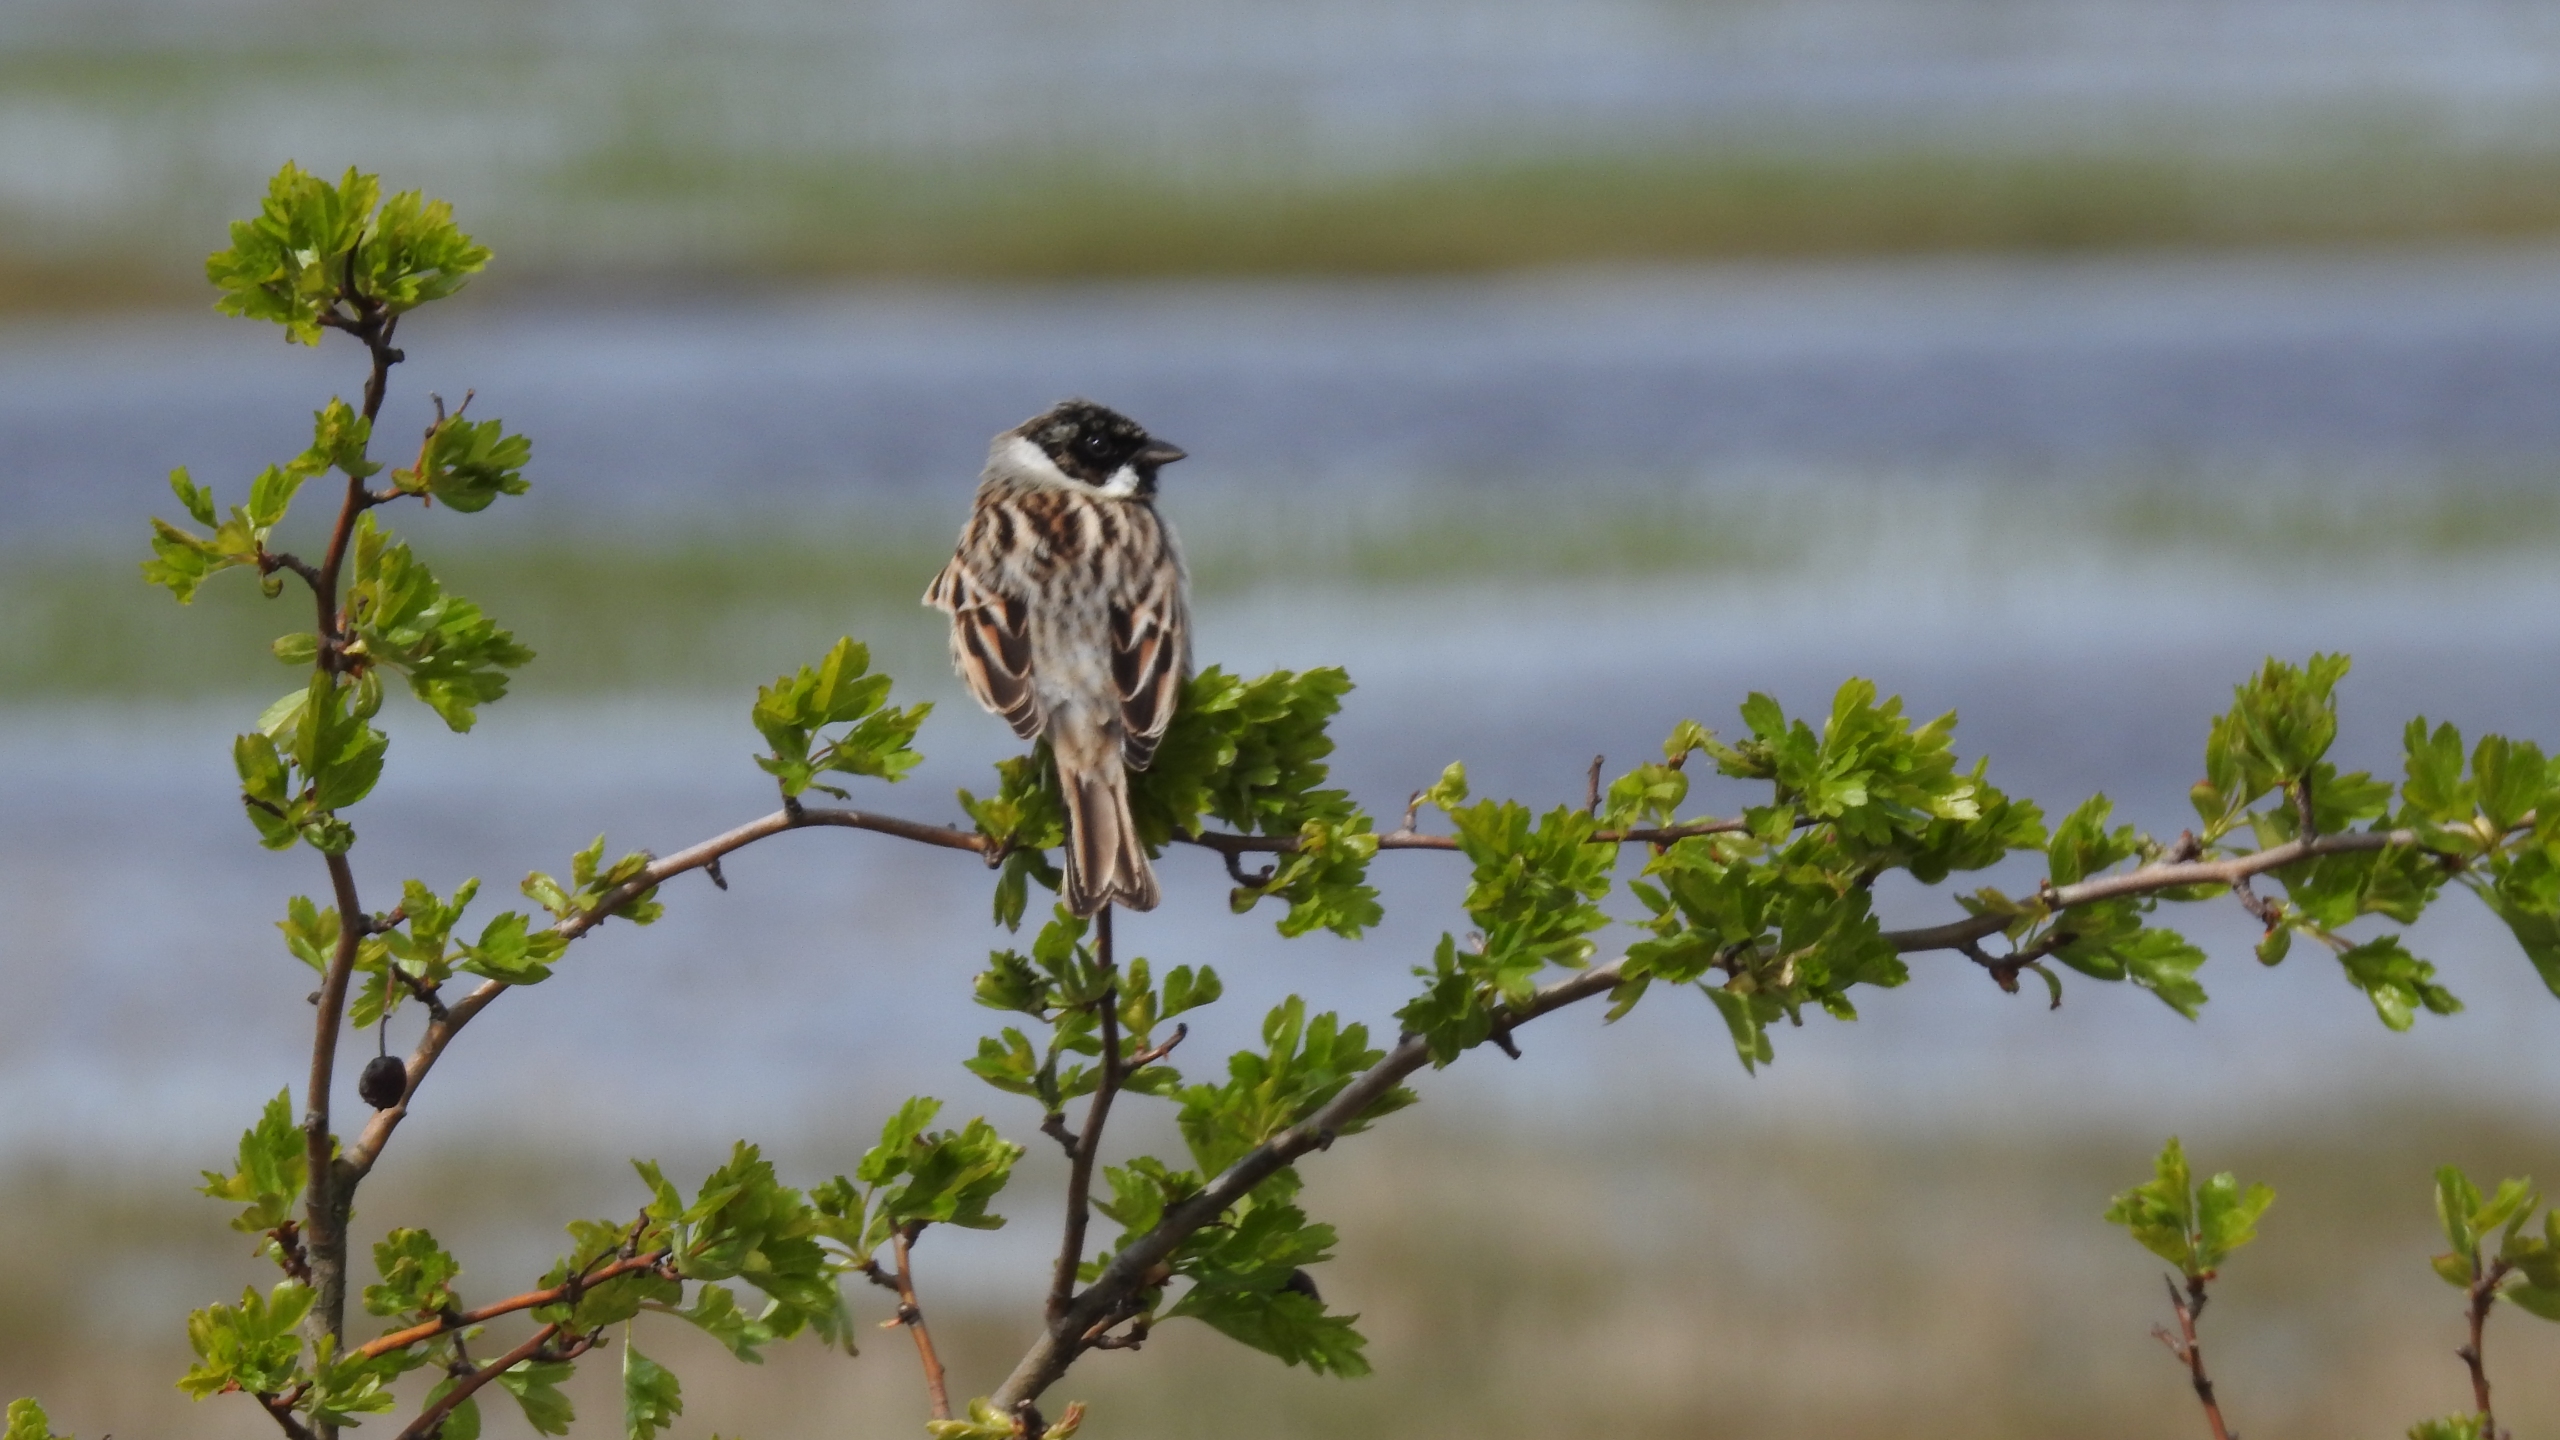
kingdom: Animalia
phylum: Chordata
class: Aves
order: Passeriformes
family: Emberizidae
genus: Emberiza
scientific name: Emberiza schoeniclus
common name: Rørspurv
